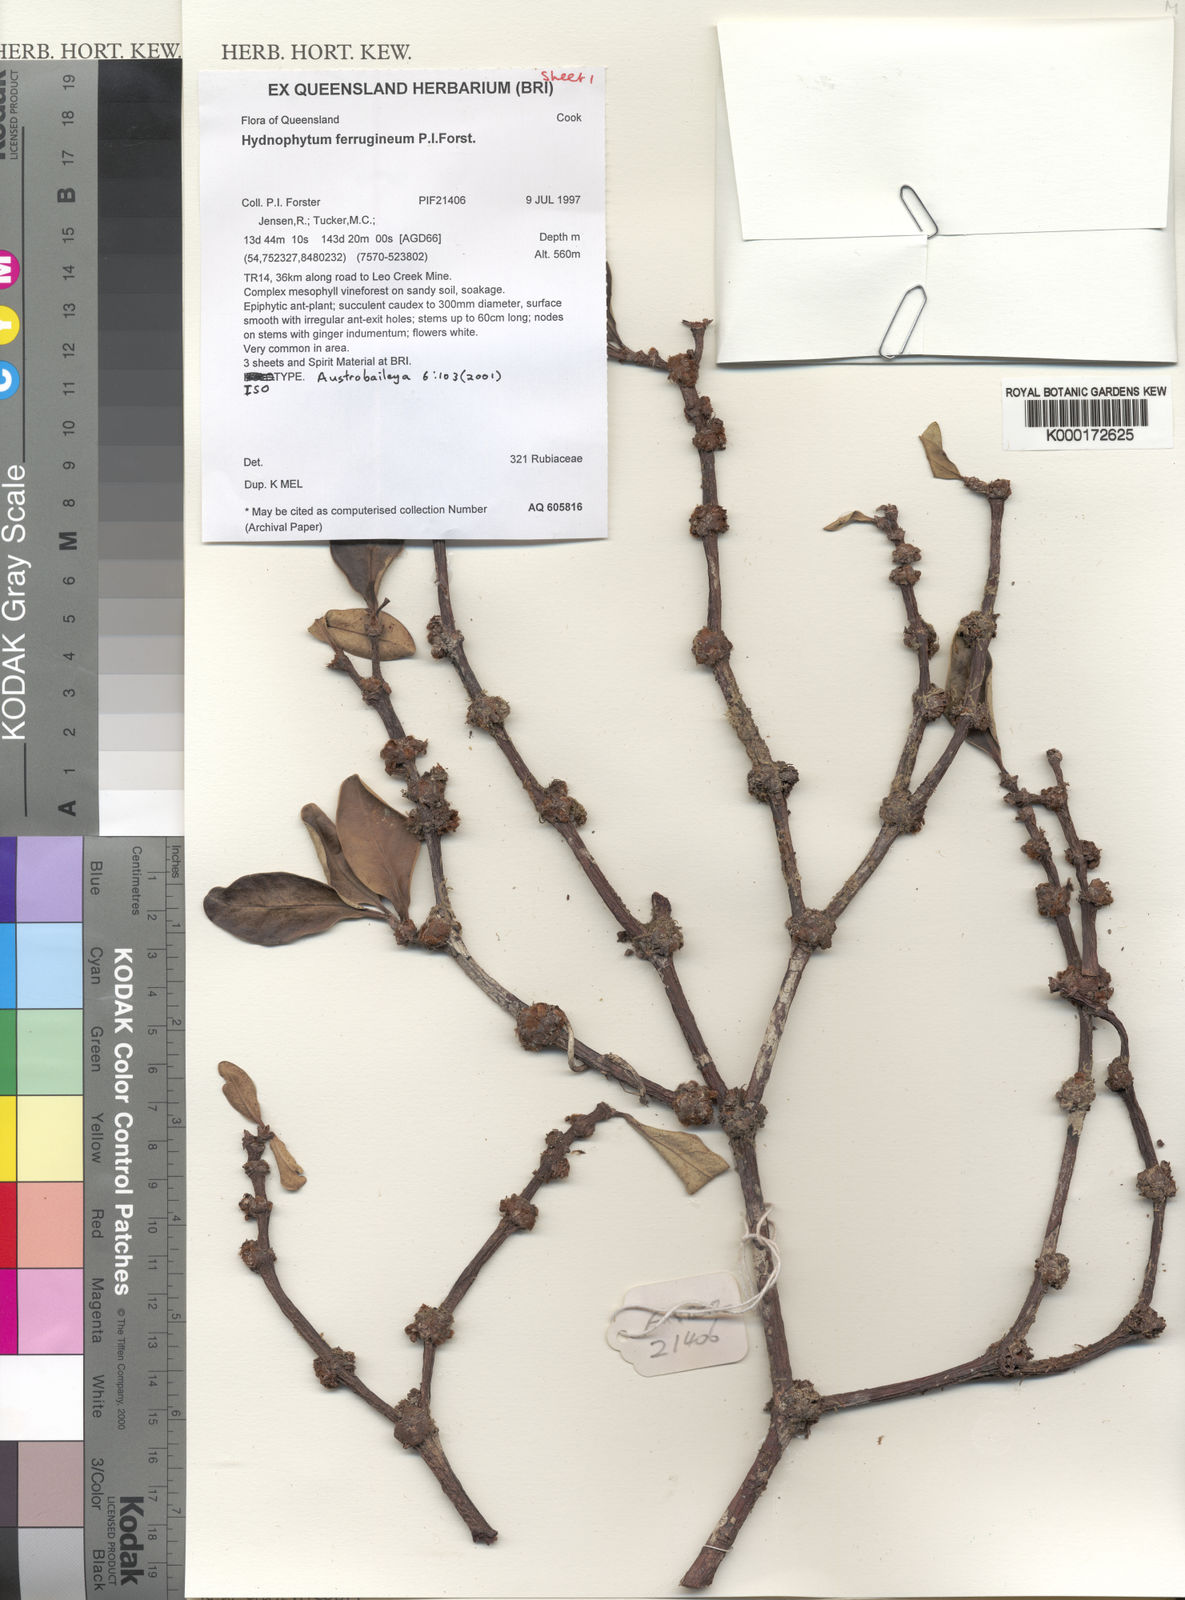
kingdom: Plantae
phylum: Tracheophyta
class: Magnoliopsida
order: Gentianales
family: Rubiaceae
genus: Hydnophytum
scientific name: Hydnophytum ferrugineum
